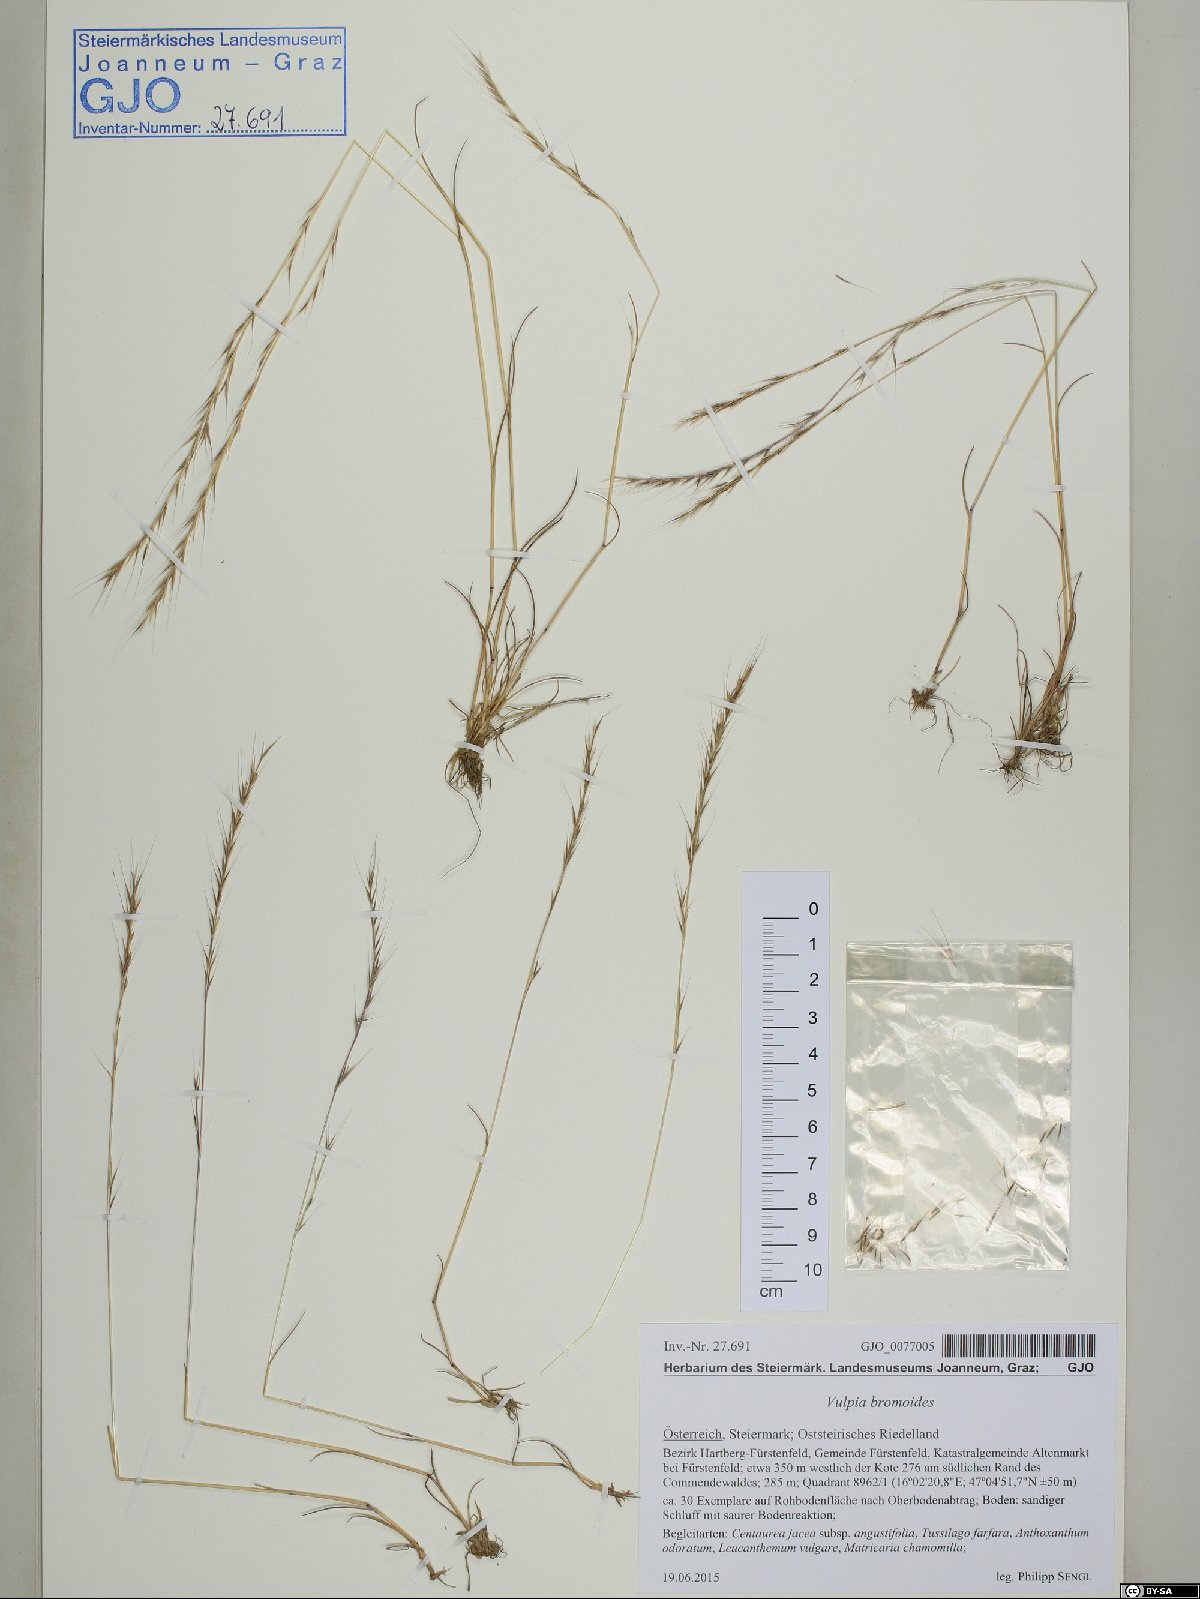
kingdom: Plantae
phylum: Tracheophyta
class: Liliopsida
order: Poales
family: Poaceae
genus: Festuca
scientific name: Festuca bromoides
